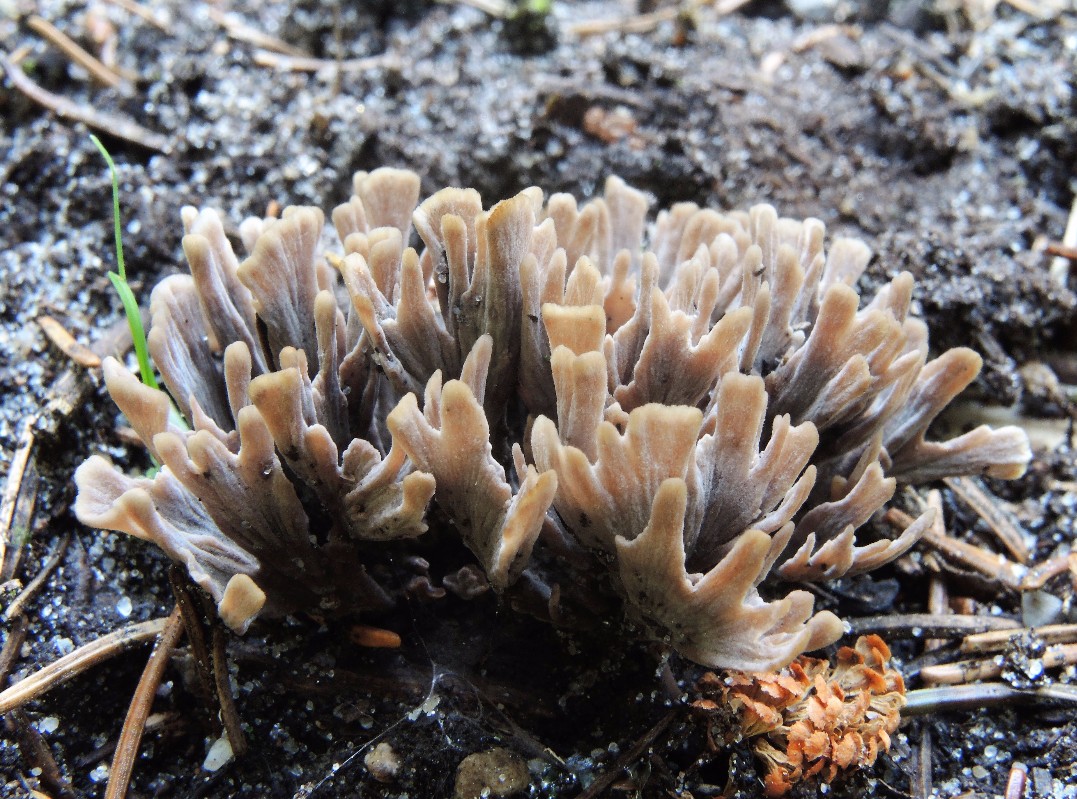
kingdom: Fungi
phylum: Basidiomycota
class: Agaricomycetes
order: Thelephorales
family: Thelephoraceae
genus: Thelephora
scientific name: Thelephora palmata
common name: grenet frynsesvamp
